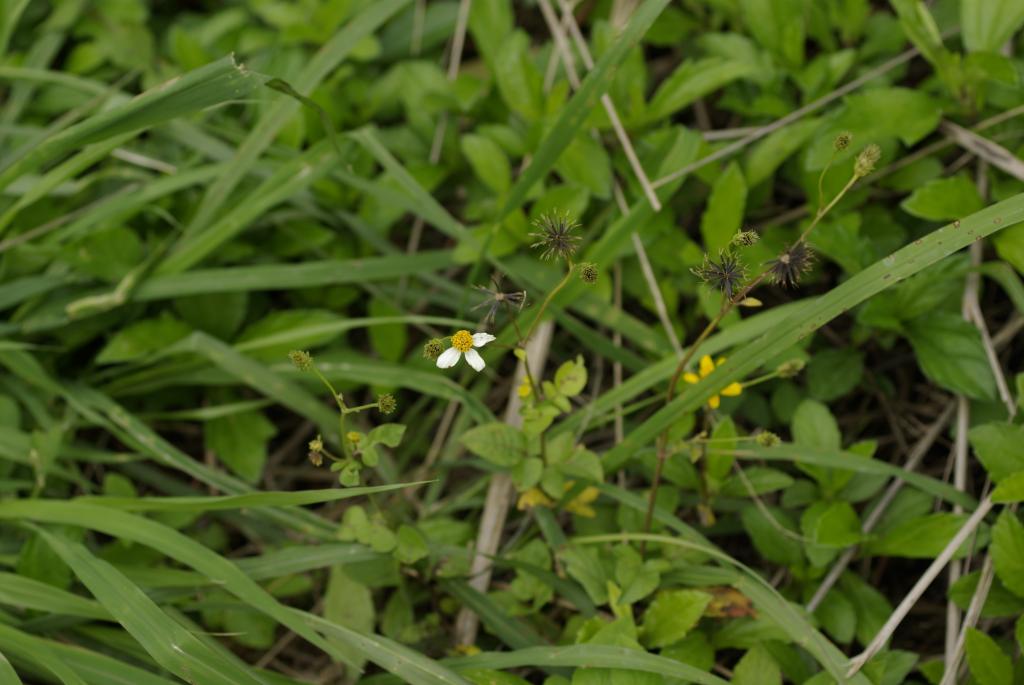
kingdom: Plantae
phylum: Tracheophyta
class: Magnoliopsida
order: Asterales
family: Asteraceae
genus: Bidens
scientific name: Bidens pilosa
